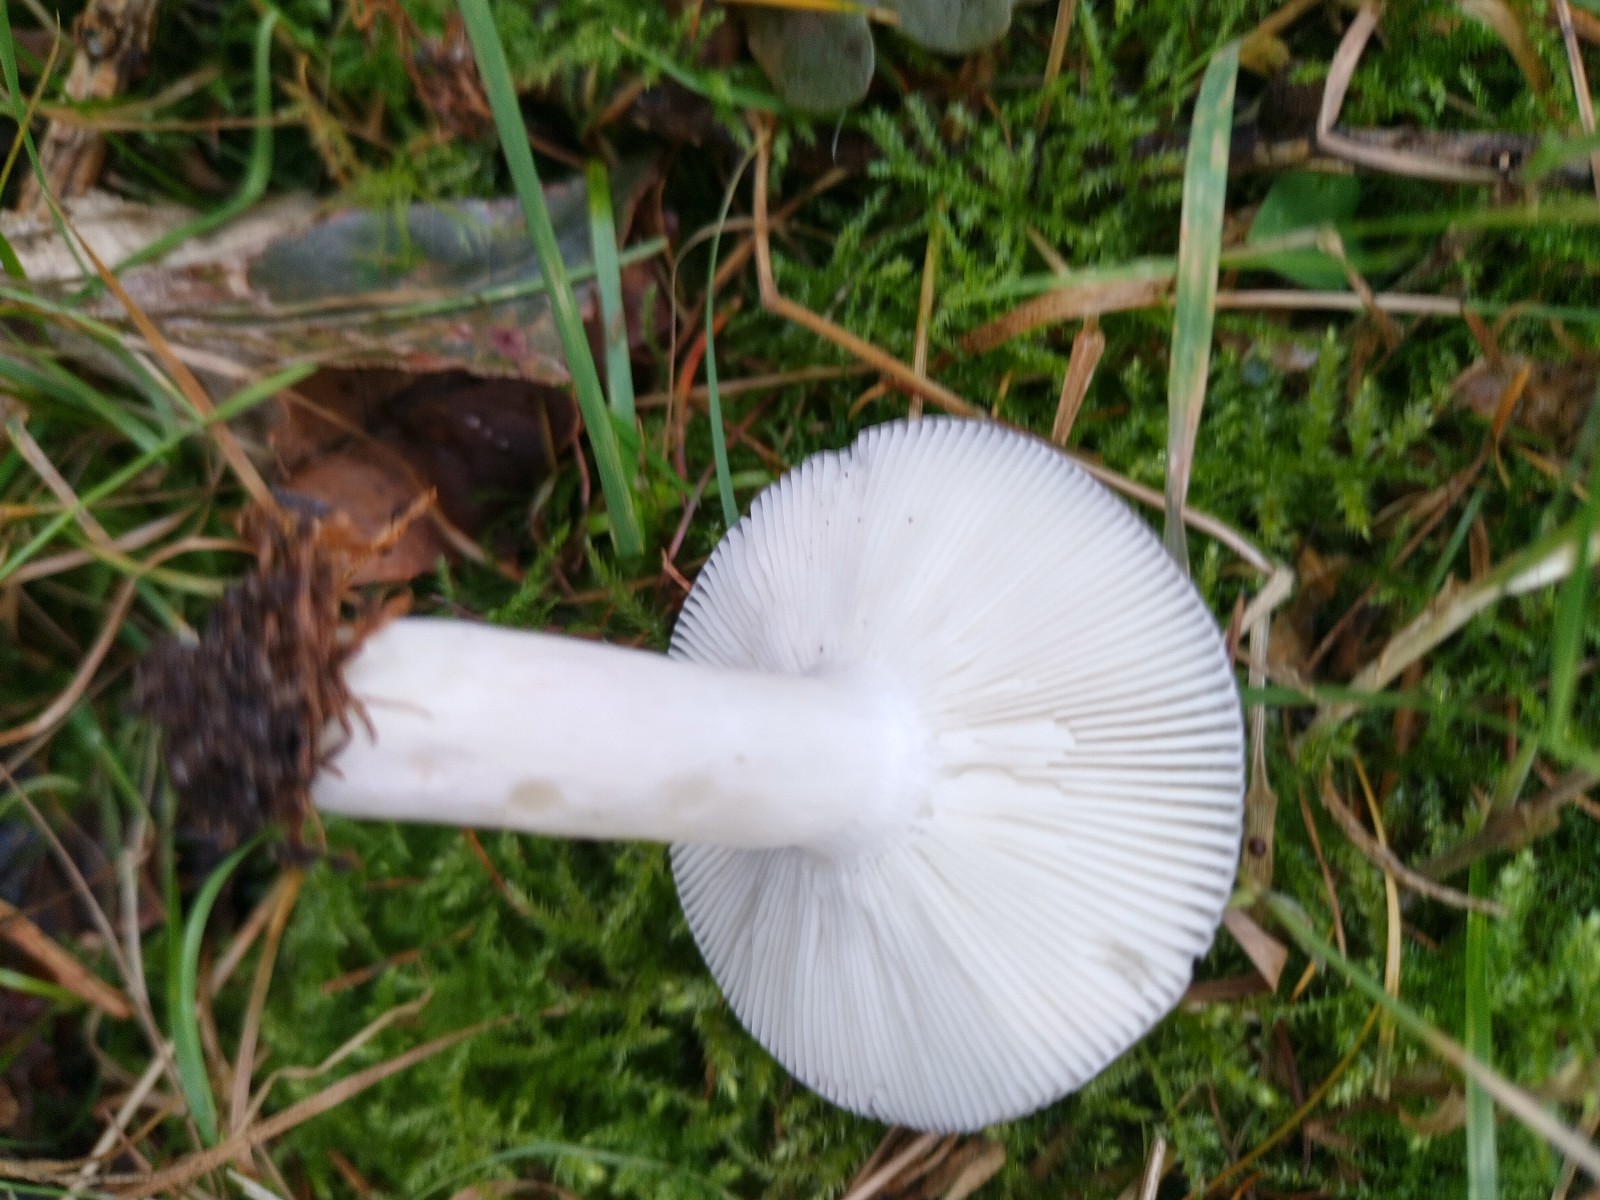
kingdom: Fungi
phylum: Basidiomycota
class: Agaricomycetes
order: Russulales
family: Russulaceae
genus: Russula
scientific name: Russula grisea
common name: grålig skørhat
